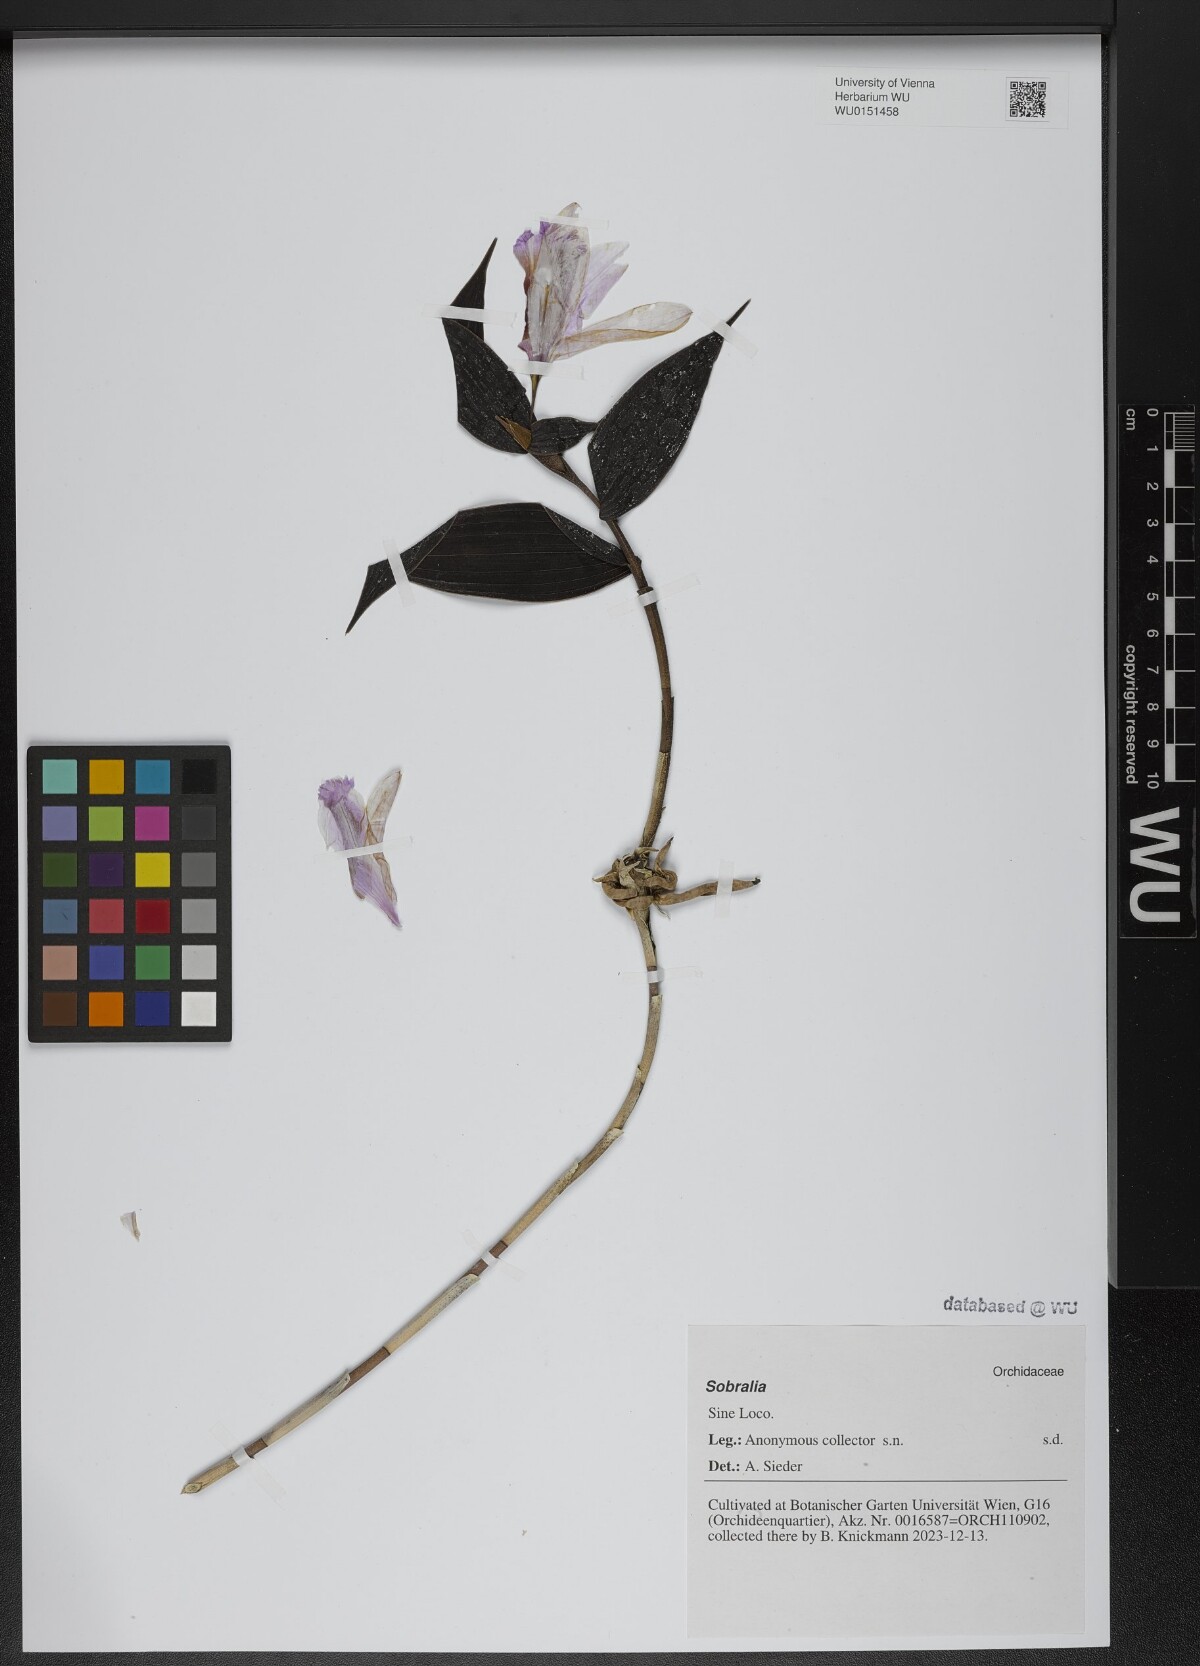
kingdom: Plantae
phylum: Tracheophyta
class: Liliopsida
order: Asparagales
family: Orchidaceae
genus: Sobralia
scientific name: Sobralia
